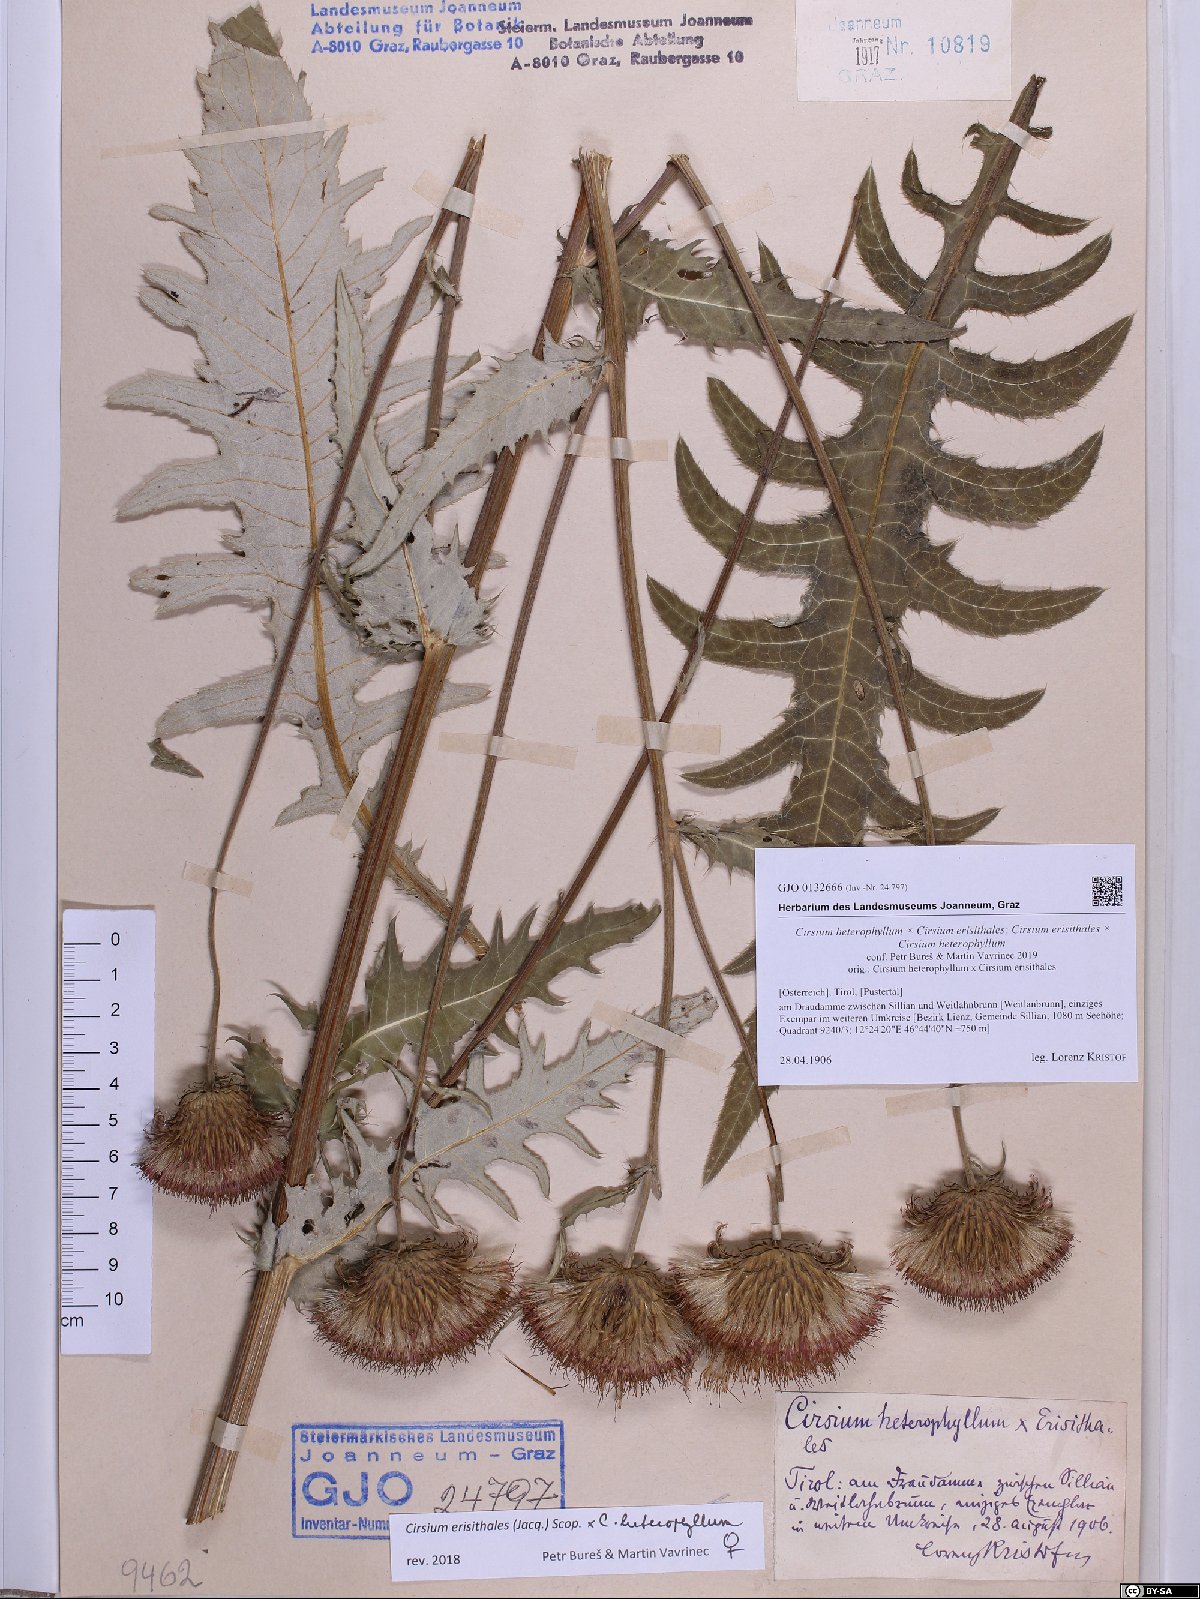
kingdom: Plantae
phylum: Tracheophyta
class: Magnoliopsida
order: Asterales
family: Asteraceae
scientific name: Asteraceae
